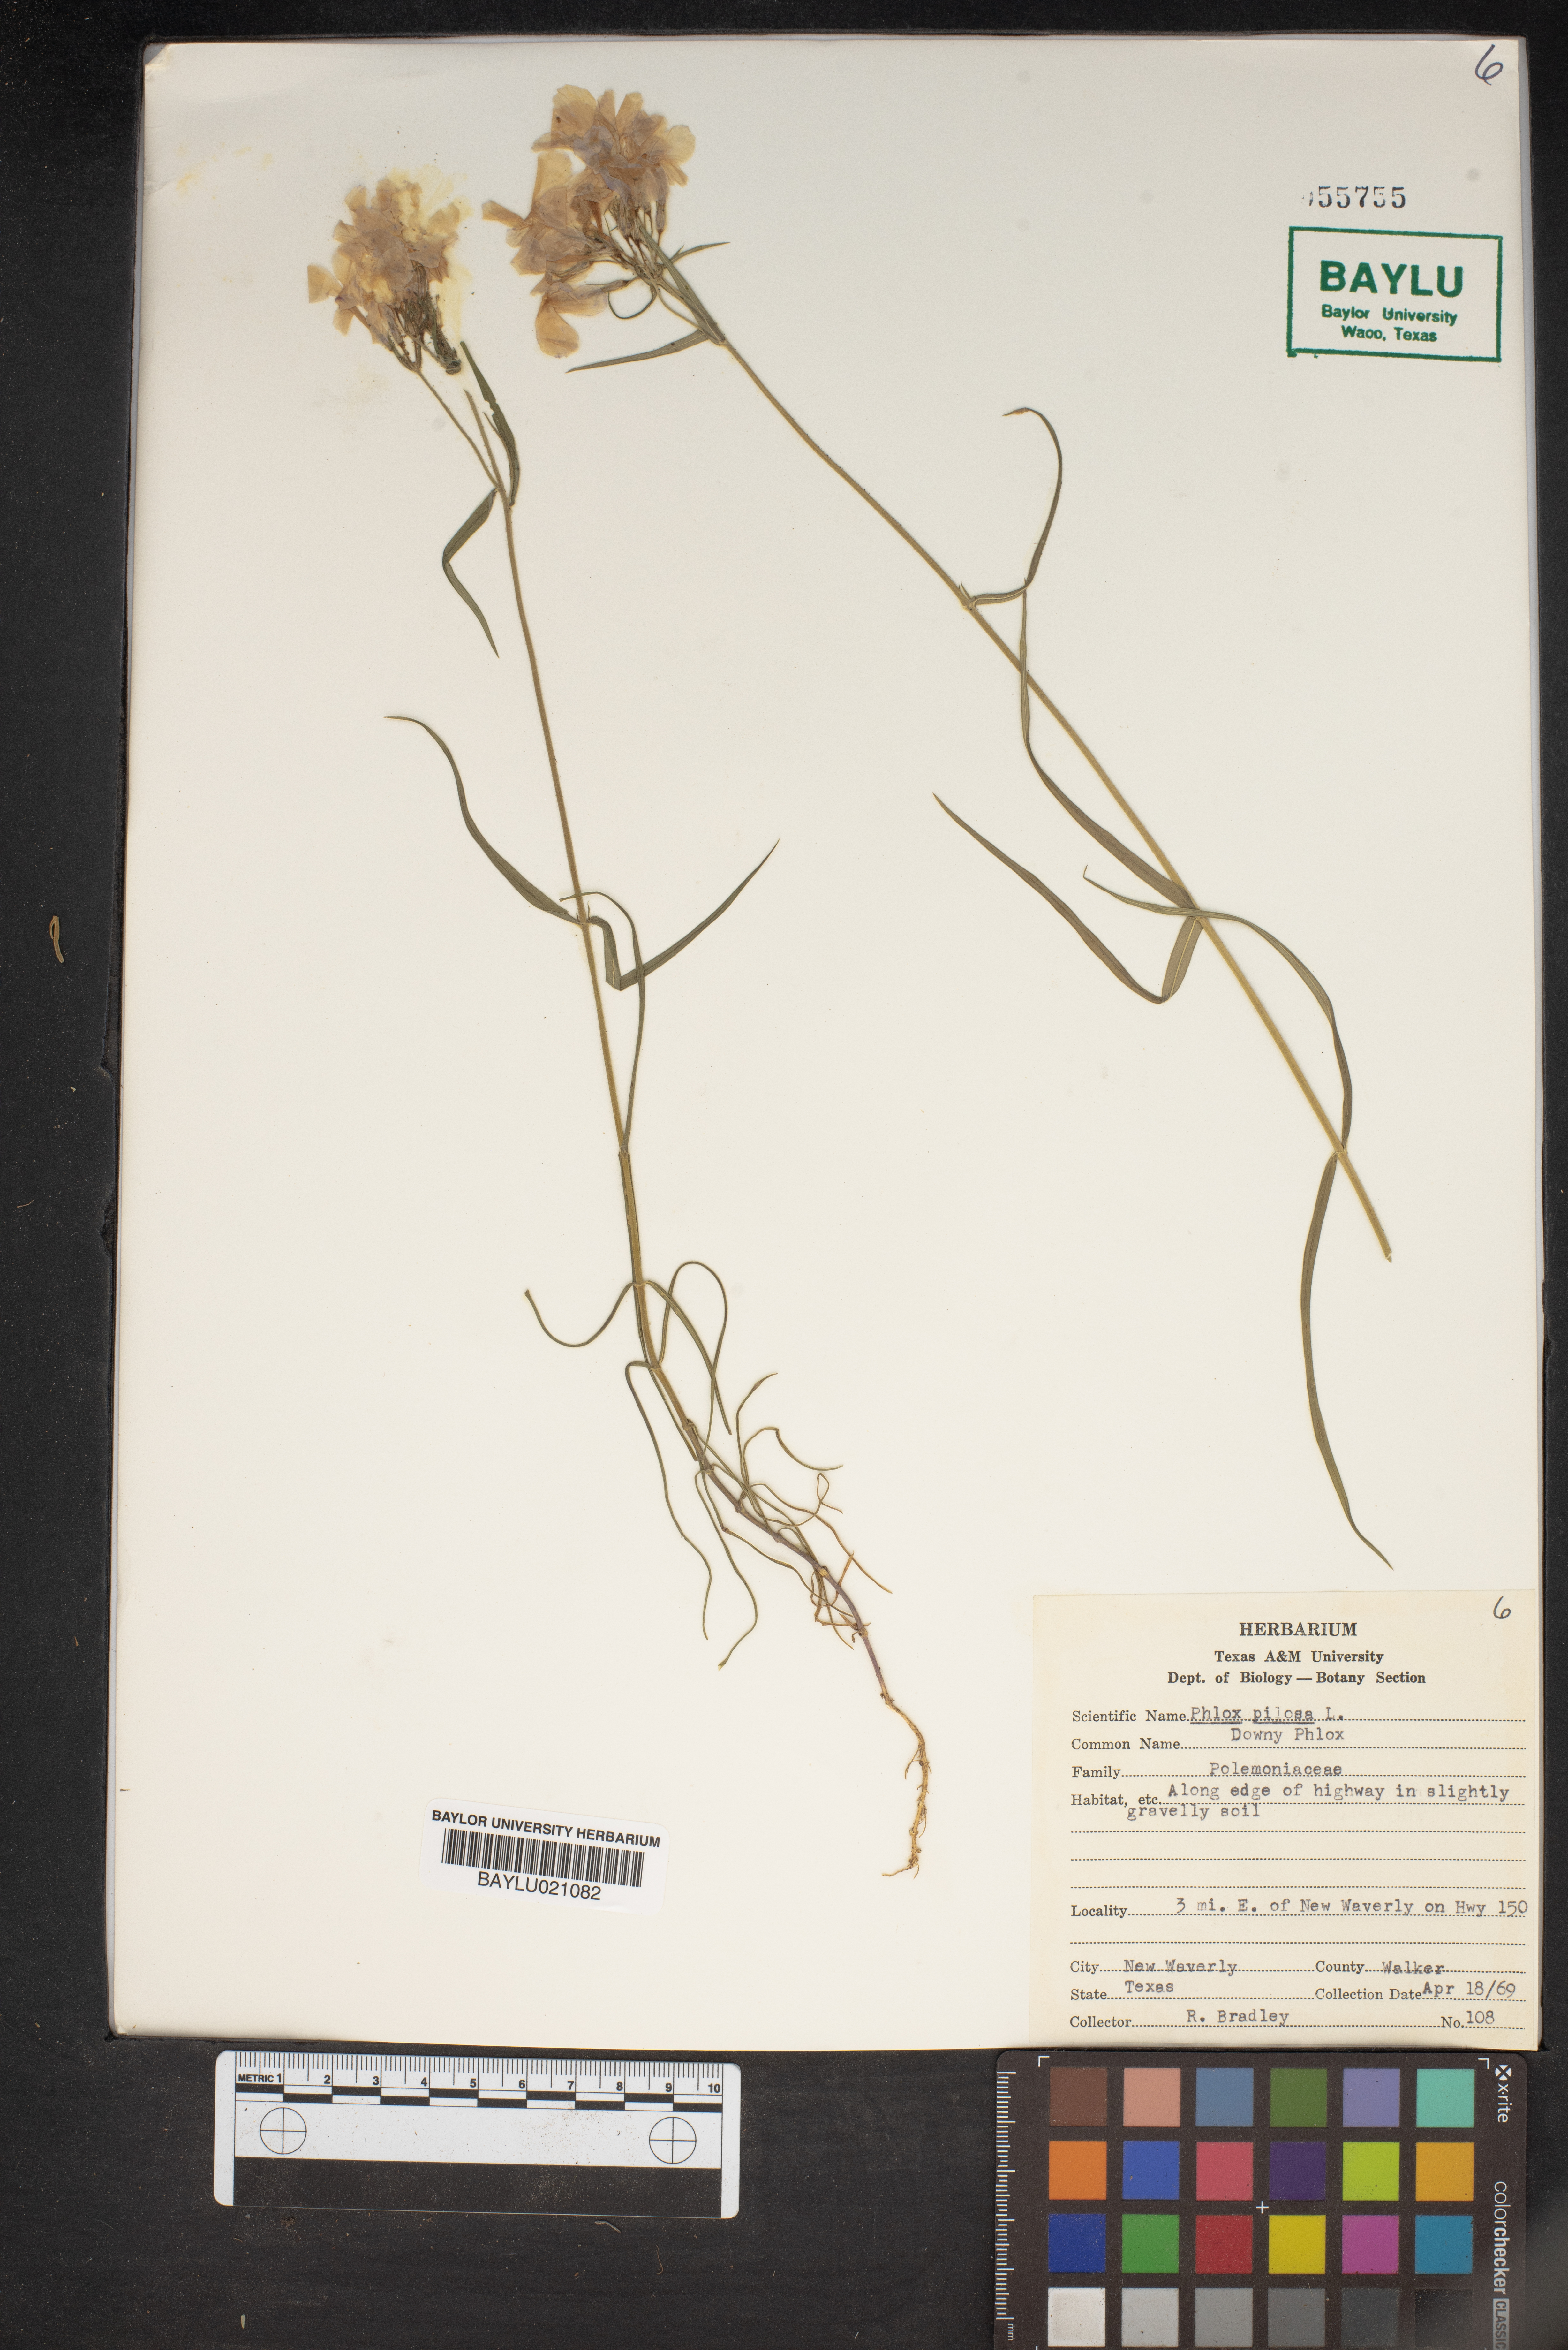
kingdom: Plantae
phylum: Tracheophyta
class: Magnoliopsida
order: Ericales
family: Polemoniaceae
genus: Phlox
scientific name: Phlox pilosa
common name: Prairie phlox
